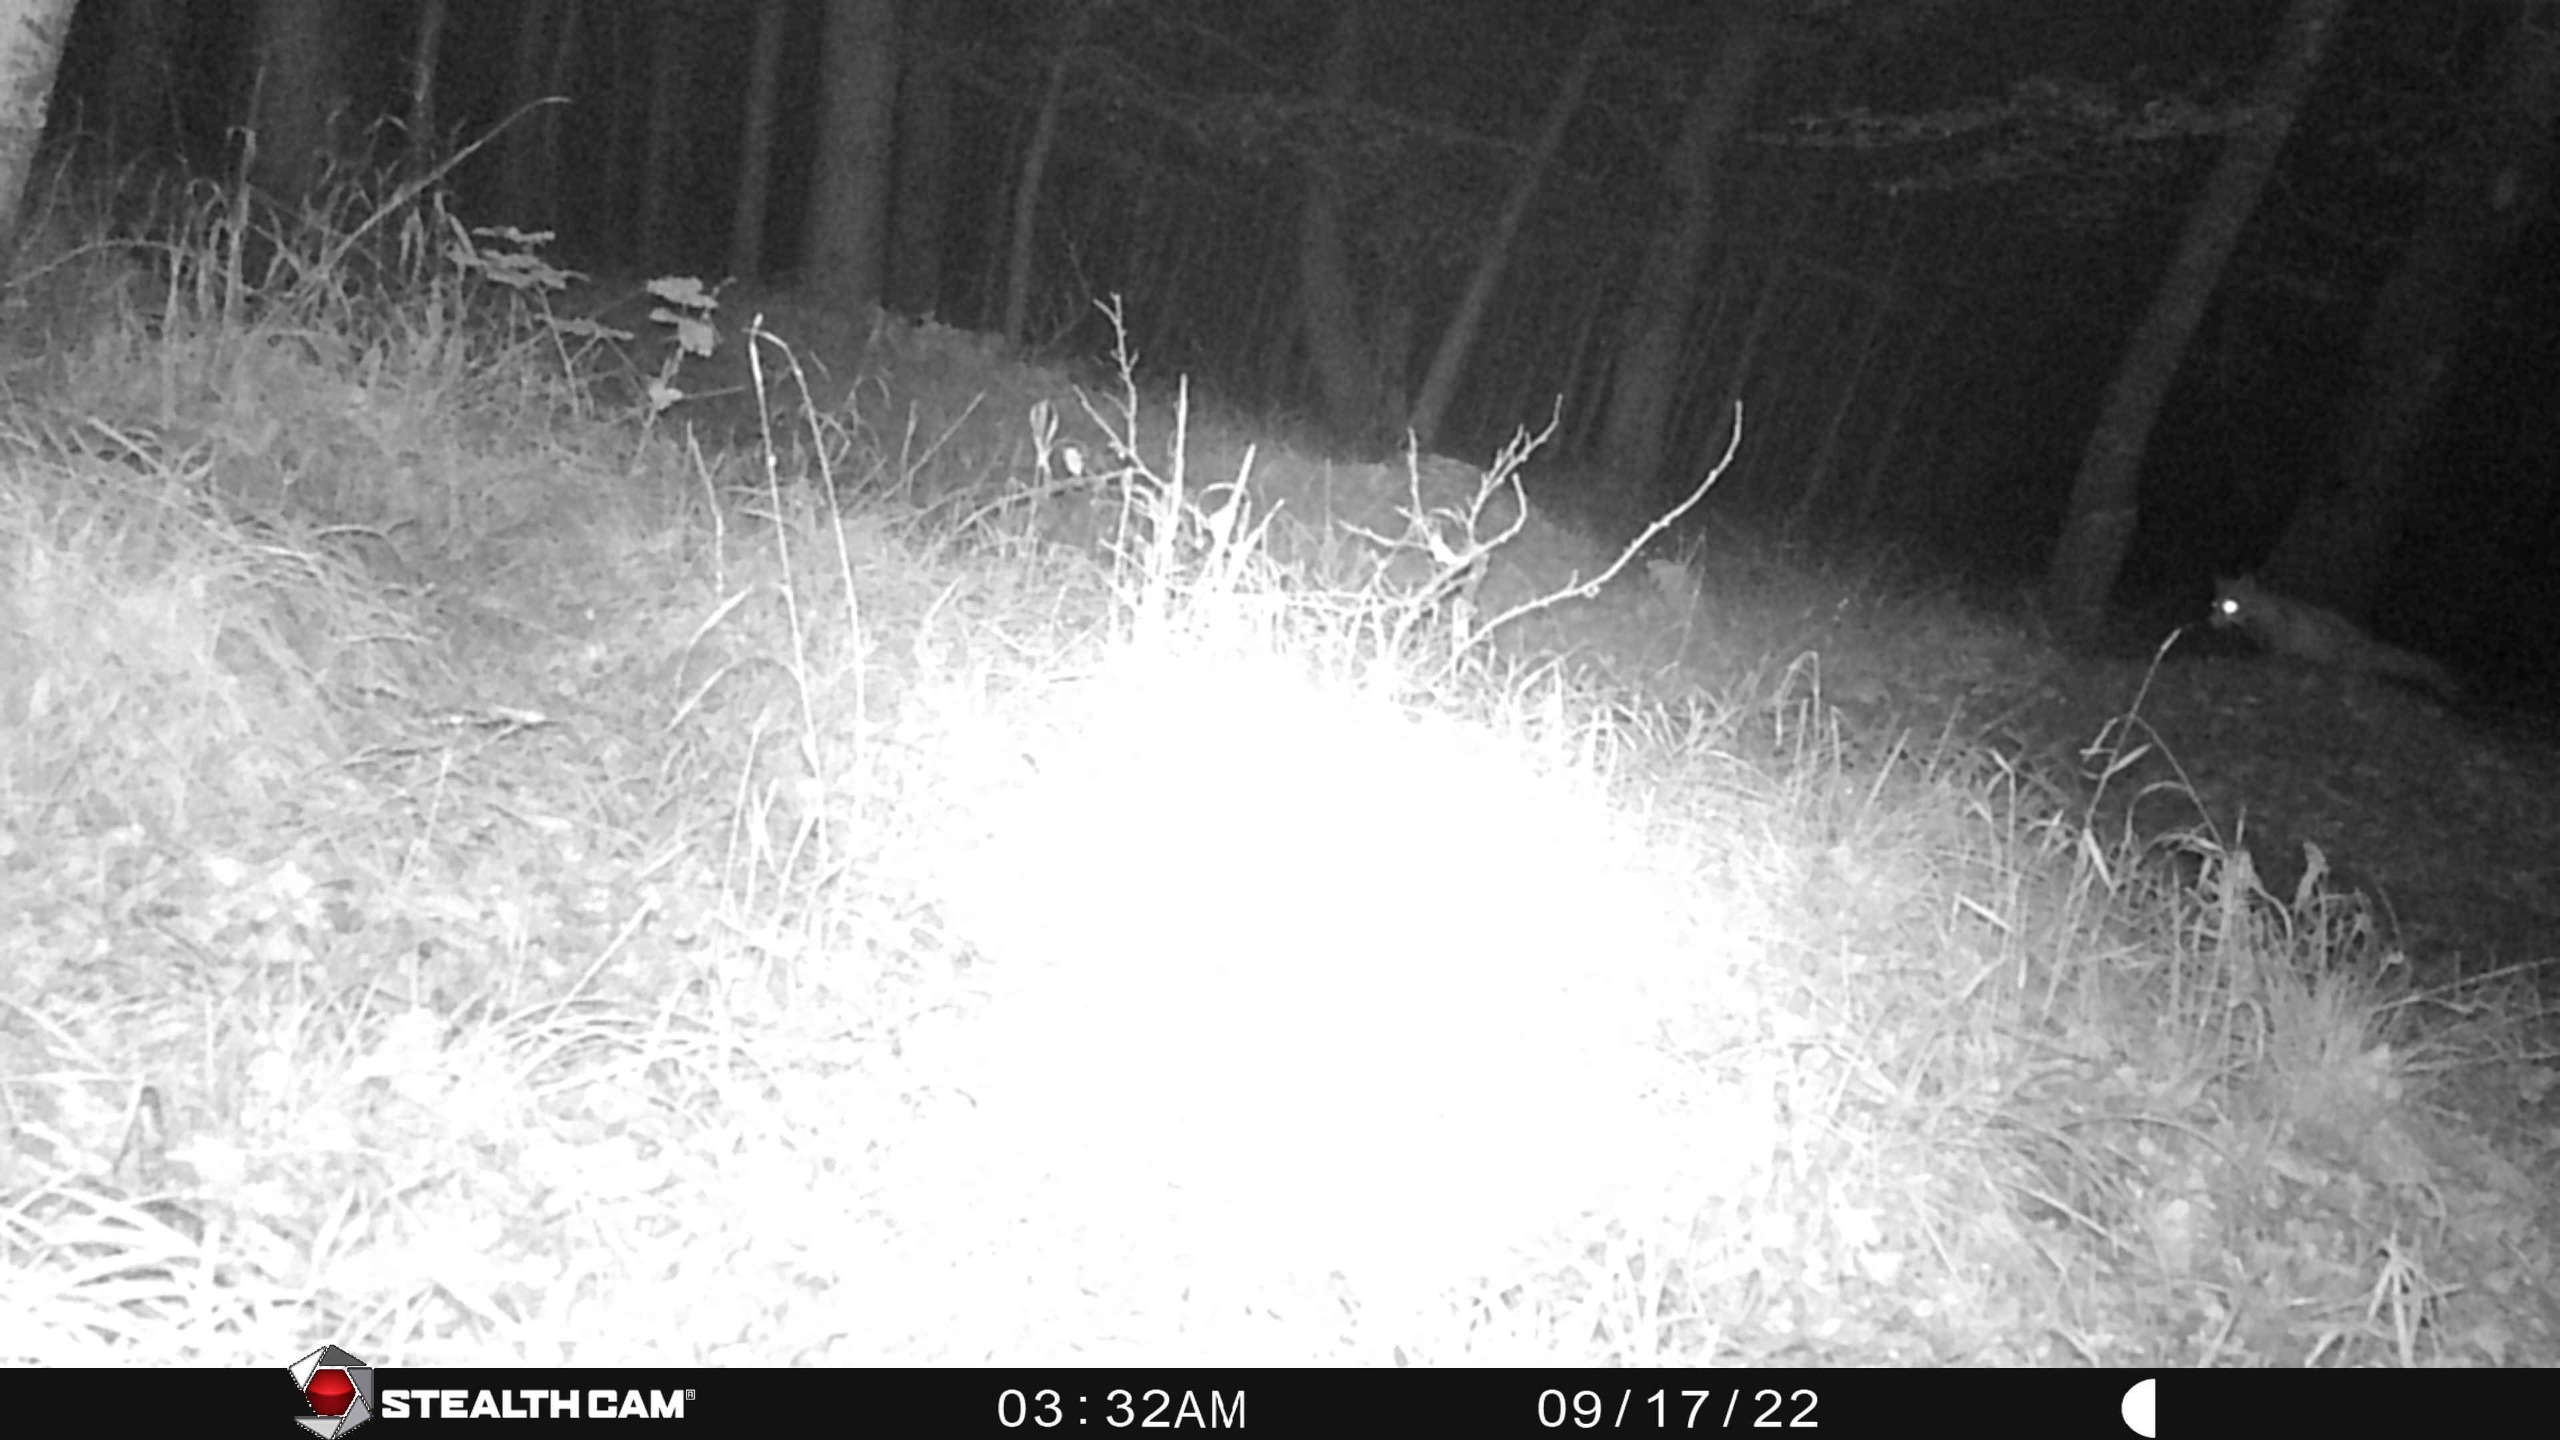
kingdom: Animalia
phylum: Chordata
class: Mammalia
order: Carnivora
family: Canidae
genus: Vulpes
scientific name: Vulpes vulpes
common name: Ræv
